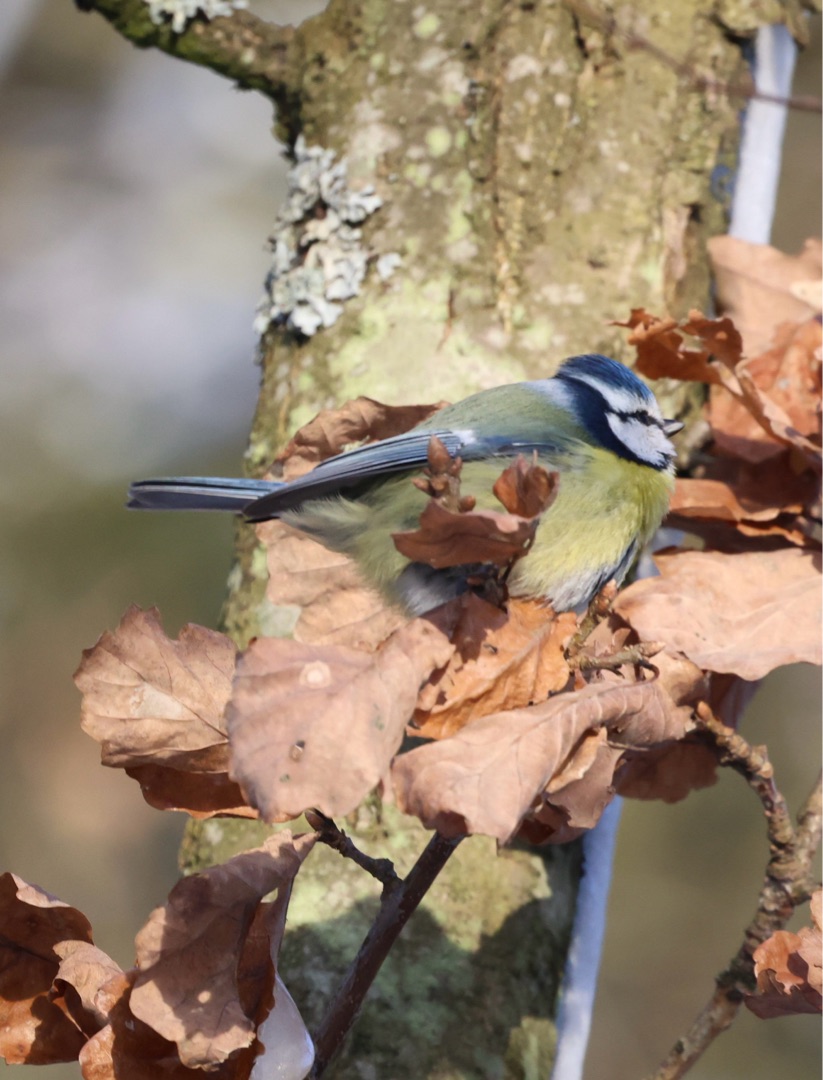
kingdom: Animalia
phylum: Chordata
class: Aves
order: Passeriformes
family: Paridae
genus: Cyanistes
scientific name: Cyanistes caeruleus
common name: Blåmejse
